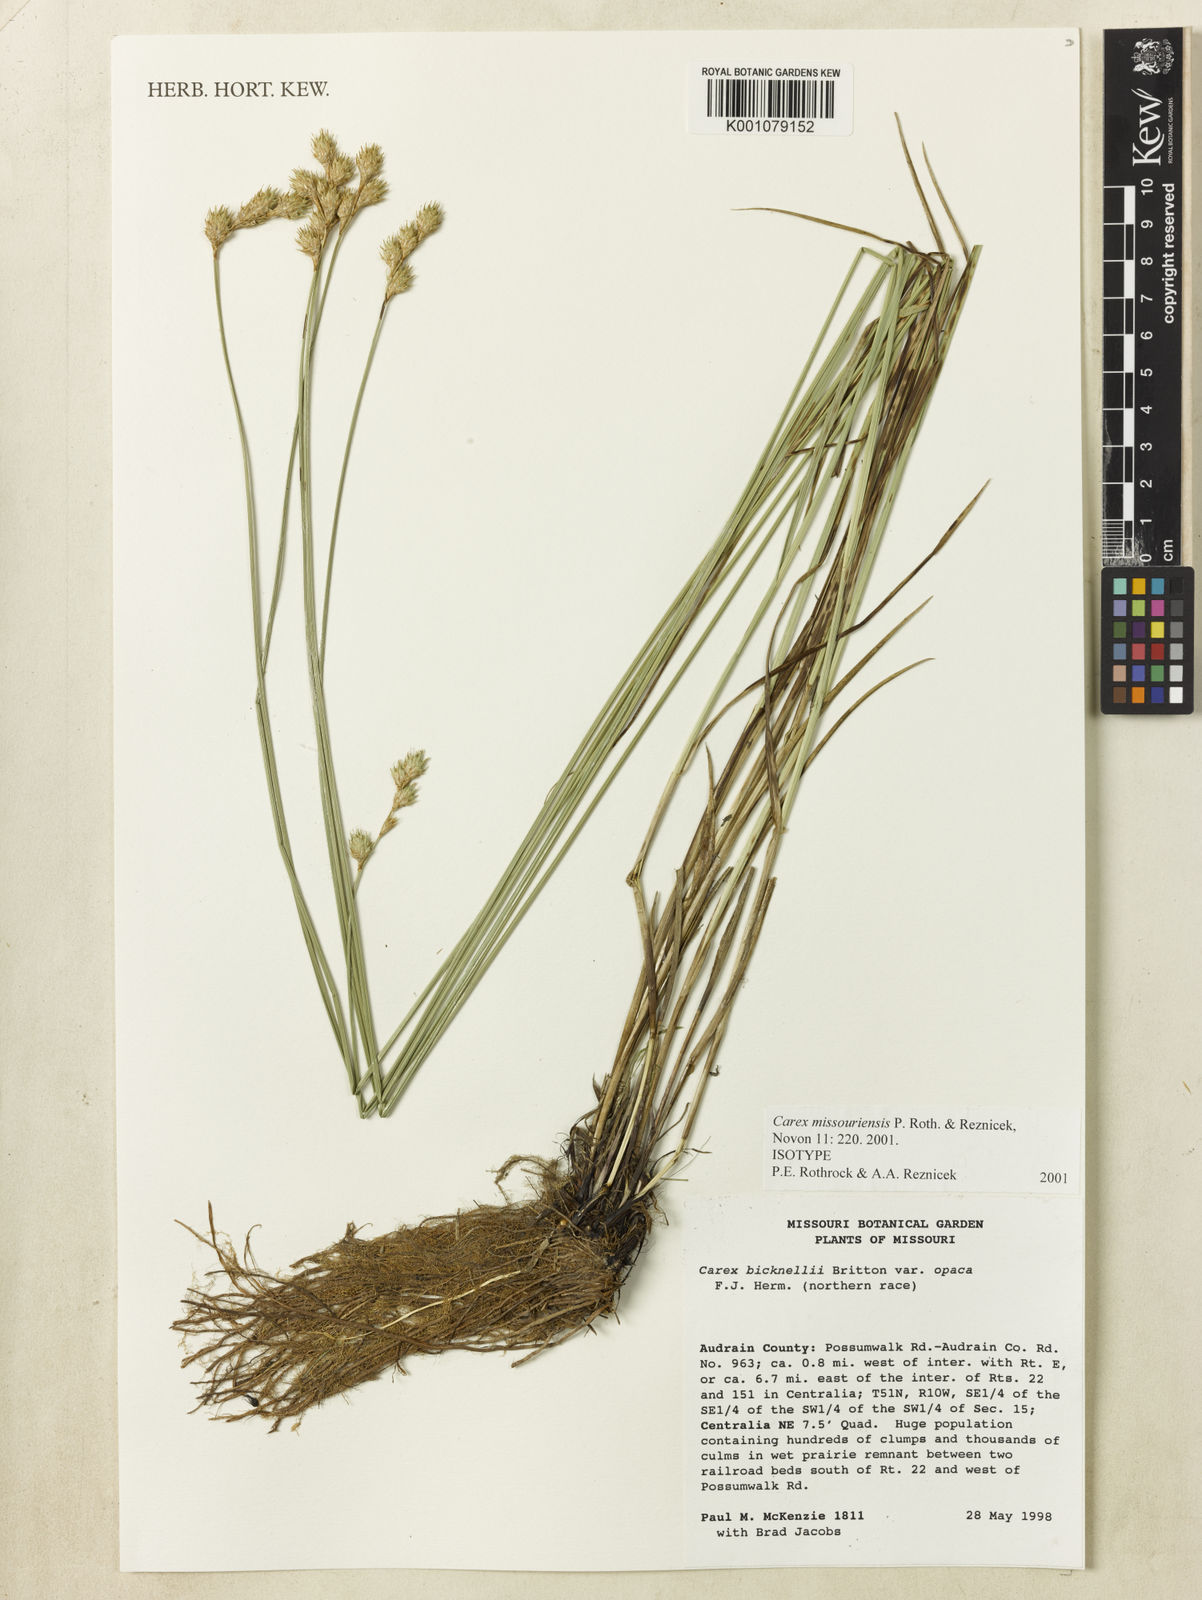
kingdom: Plantae
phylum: Tracheophyta
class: Liliopsida
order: Poales
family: Cyperaceae
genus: Carex
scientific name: Carex missouriensis
